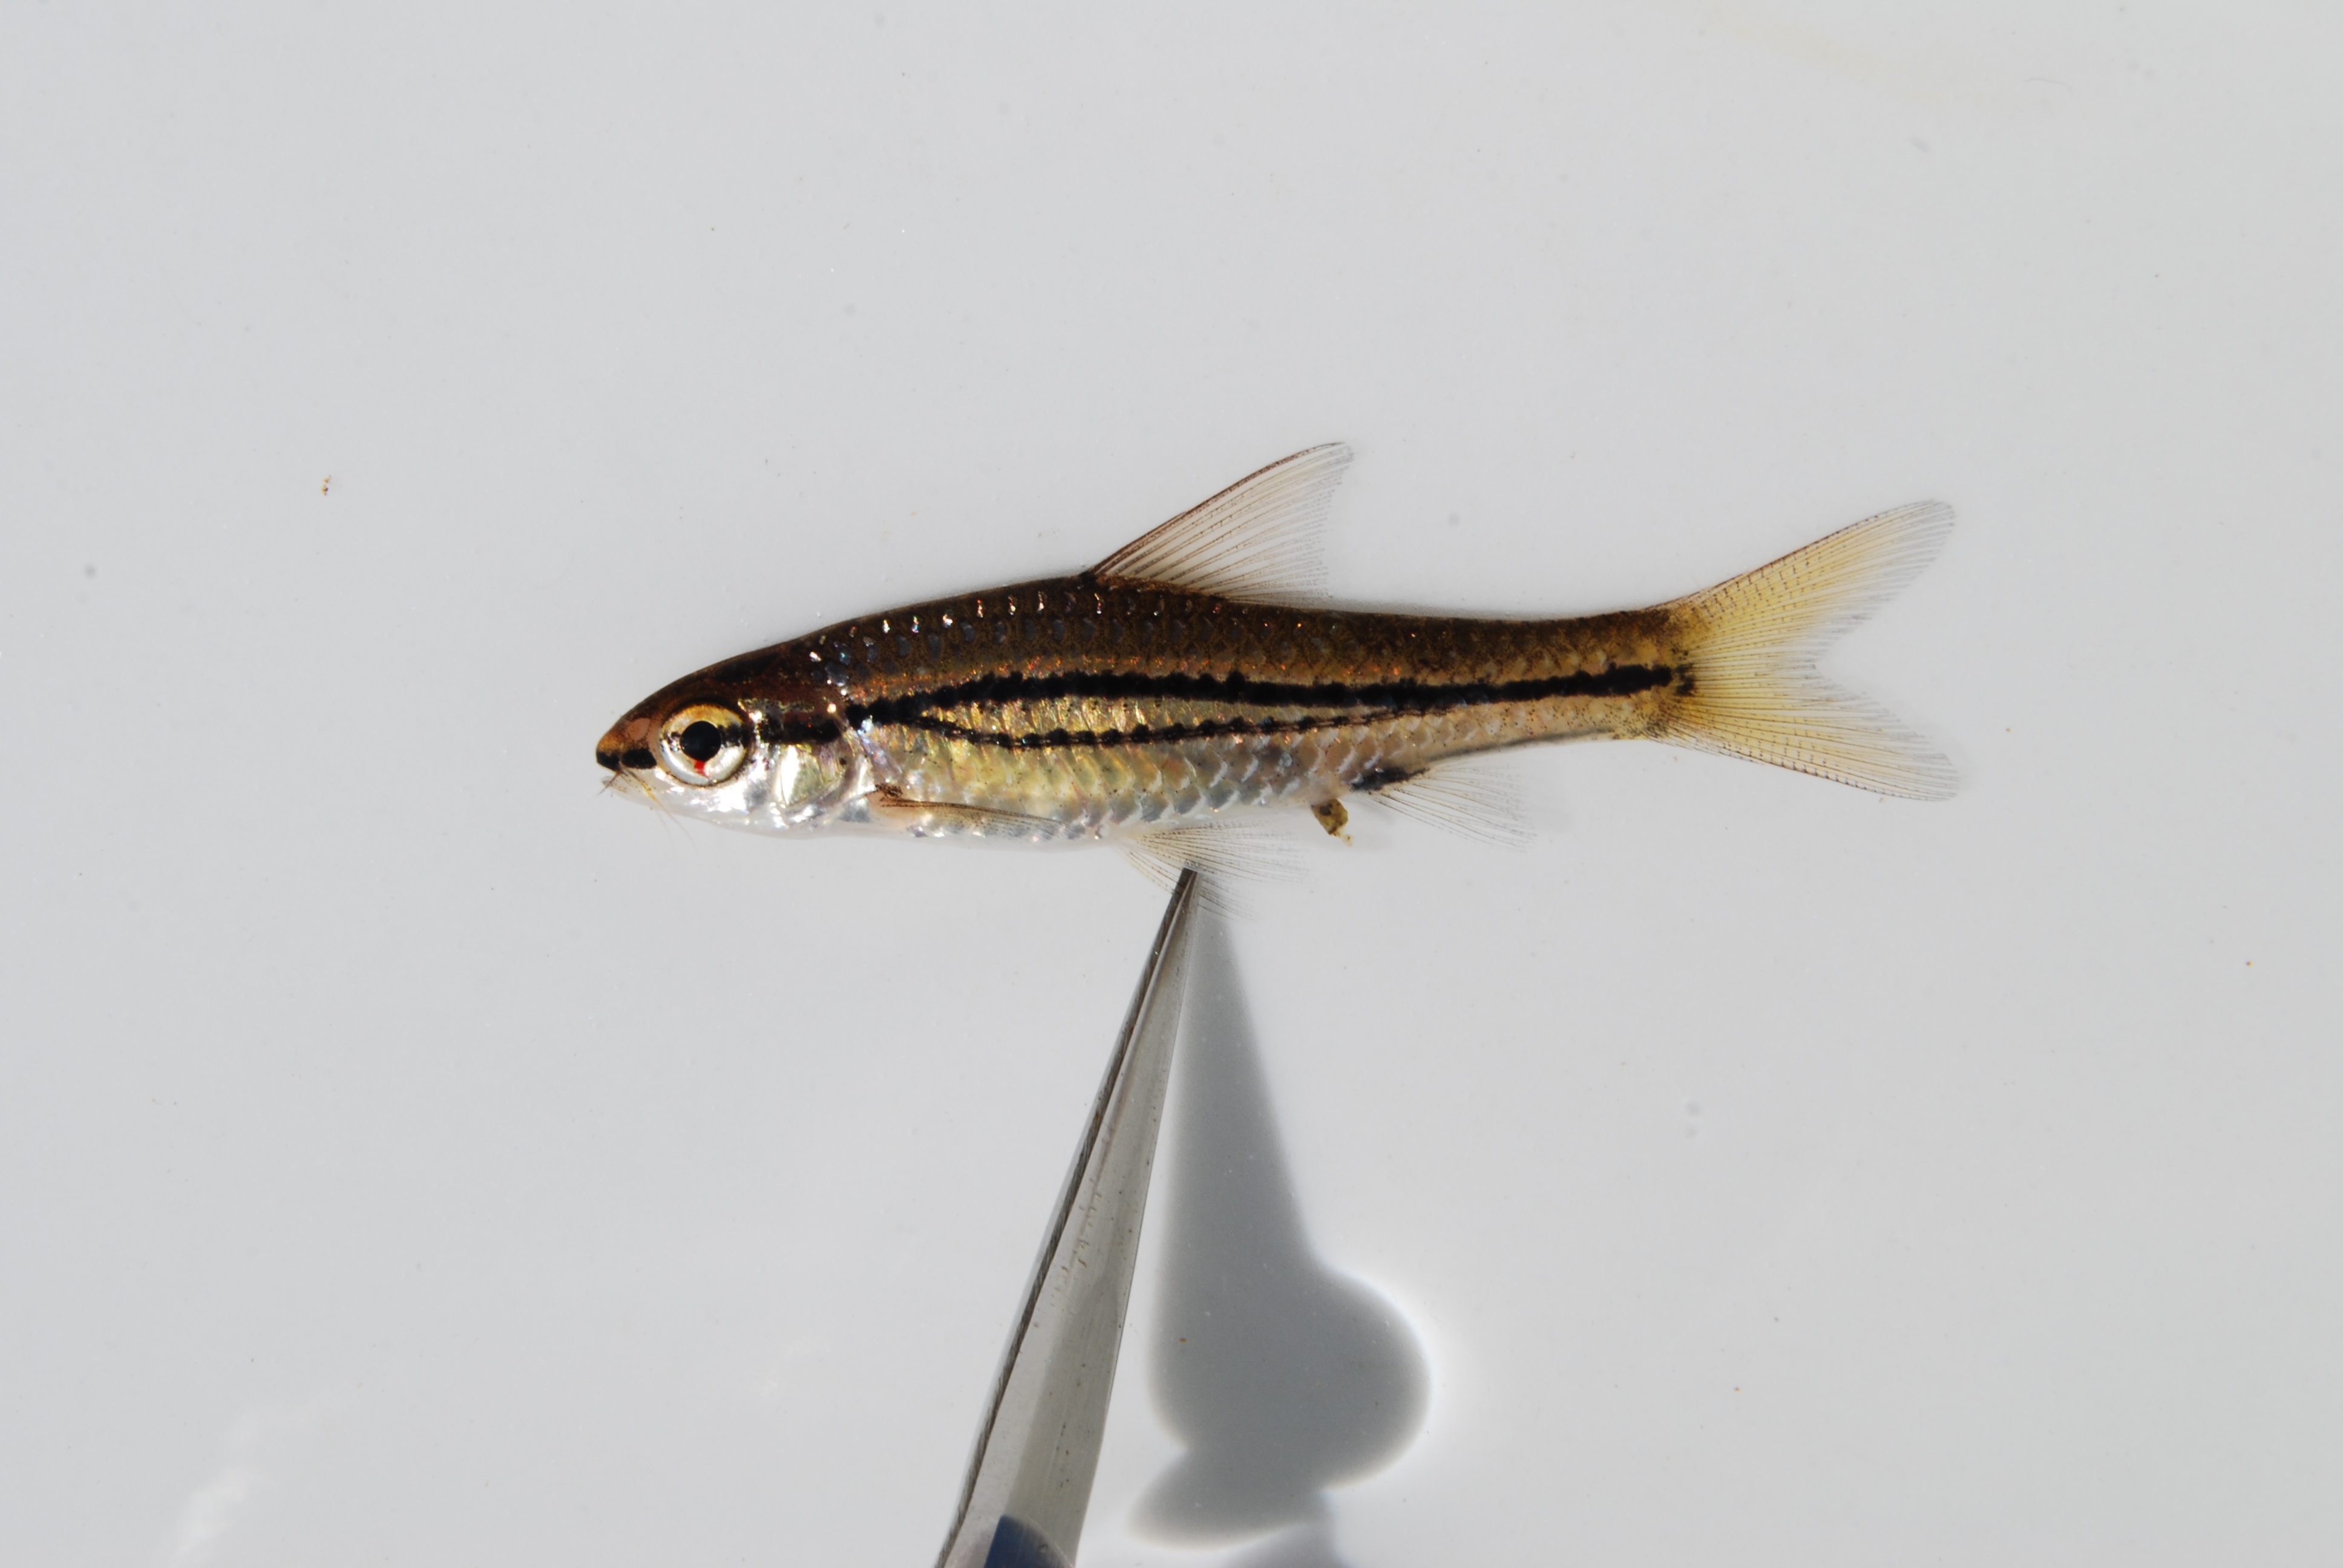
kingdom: Animalia
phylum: Chordata
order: Cypriniformes
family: Cyprinidae
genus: Enteromius
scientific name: Enteromius bifrenatus
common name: Hyphen barb
